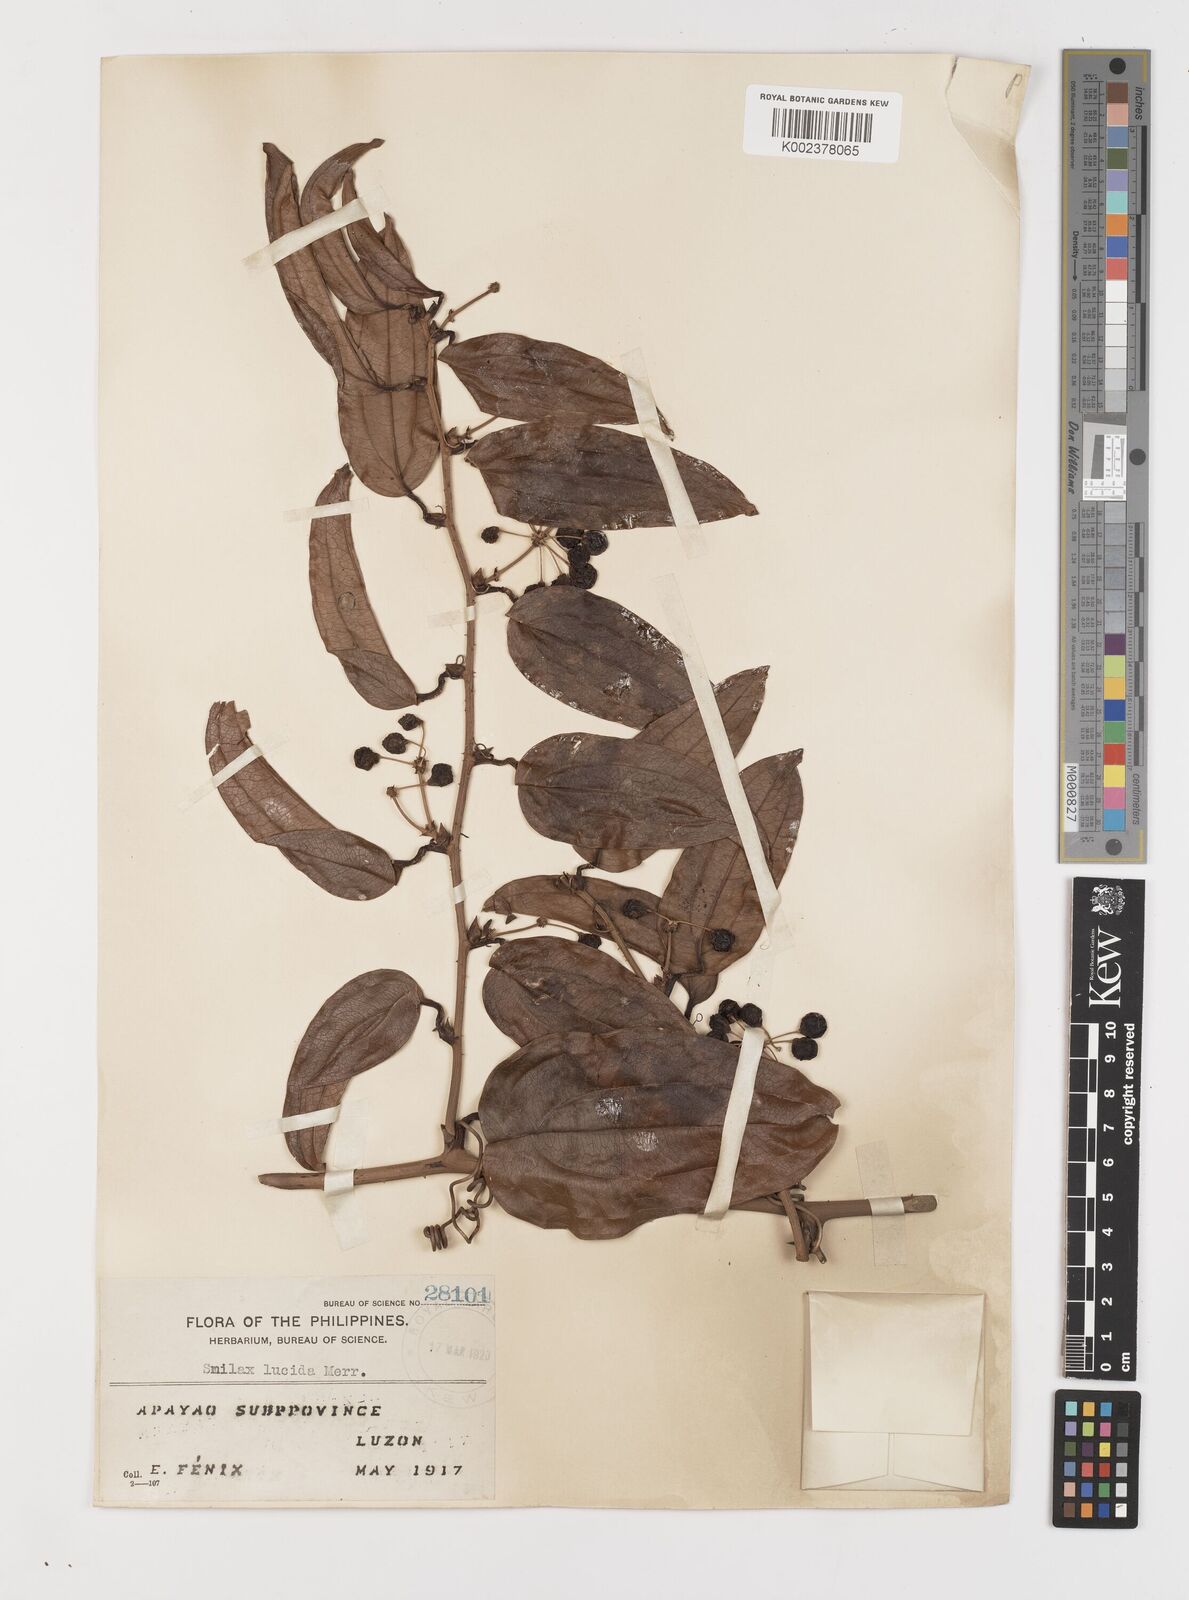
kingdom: Plantae
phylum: Tracheophyta
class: Liliopsida
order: Liliales
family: Smilacaceae
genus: Smilax
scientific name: Smilax lucida
